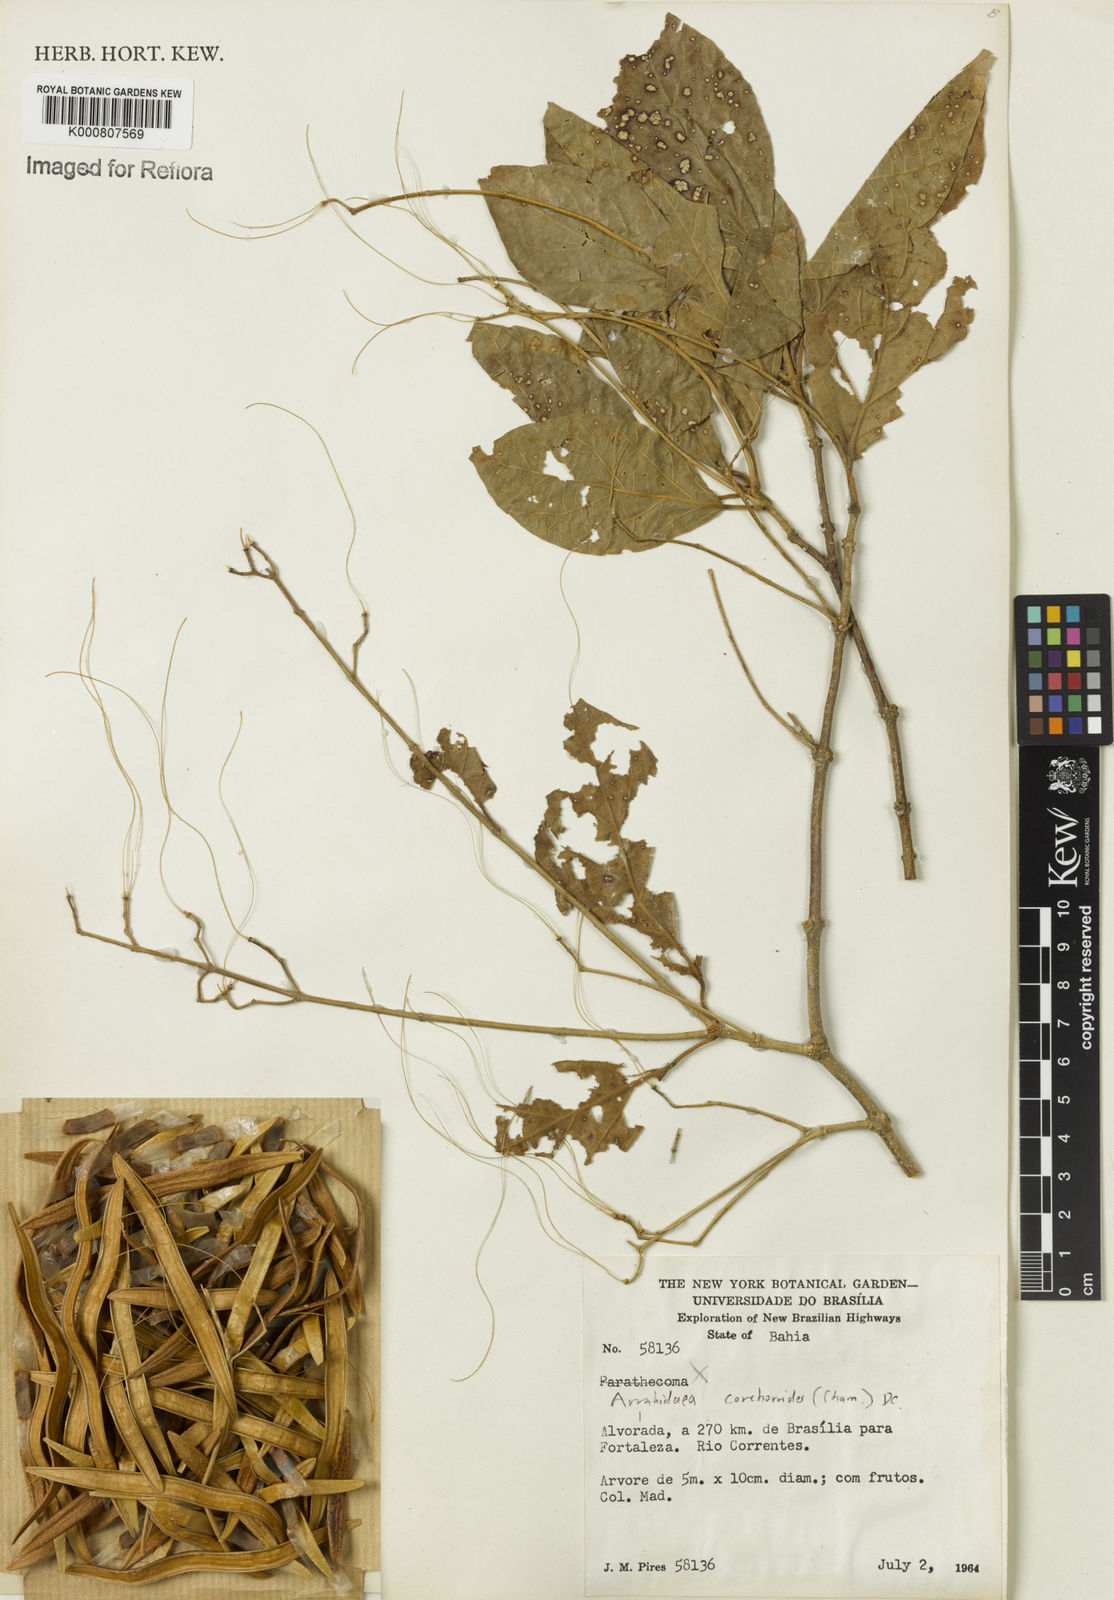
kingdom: Plantae
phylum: Tracheophyta
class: Magnoliopsida
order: Lamiales
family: Bignoniaceae
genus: Xylophragma
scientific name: Xylophragma corchoroides
